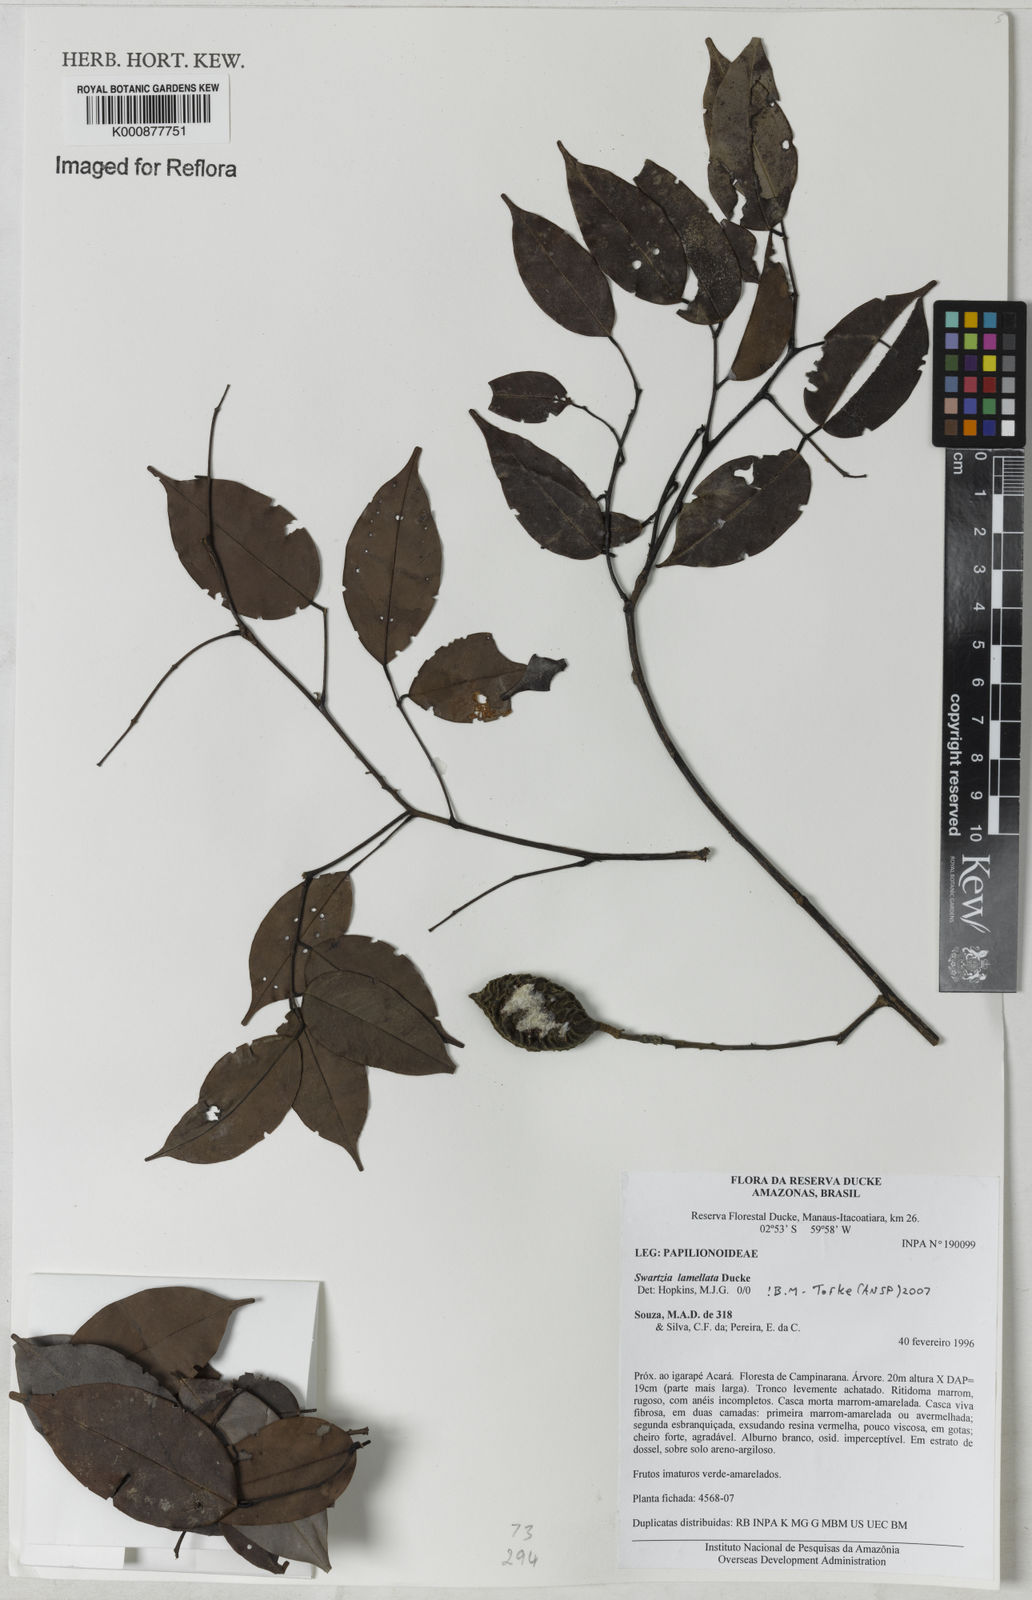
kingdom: Plantae
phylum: Tracheophyta
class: Magnoliopsida
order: Fabales
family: Fabaceae
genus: Swartzia
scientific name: Swartzia lamellata
